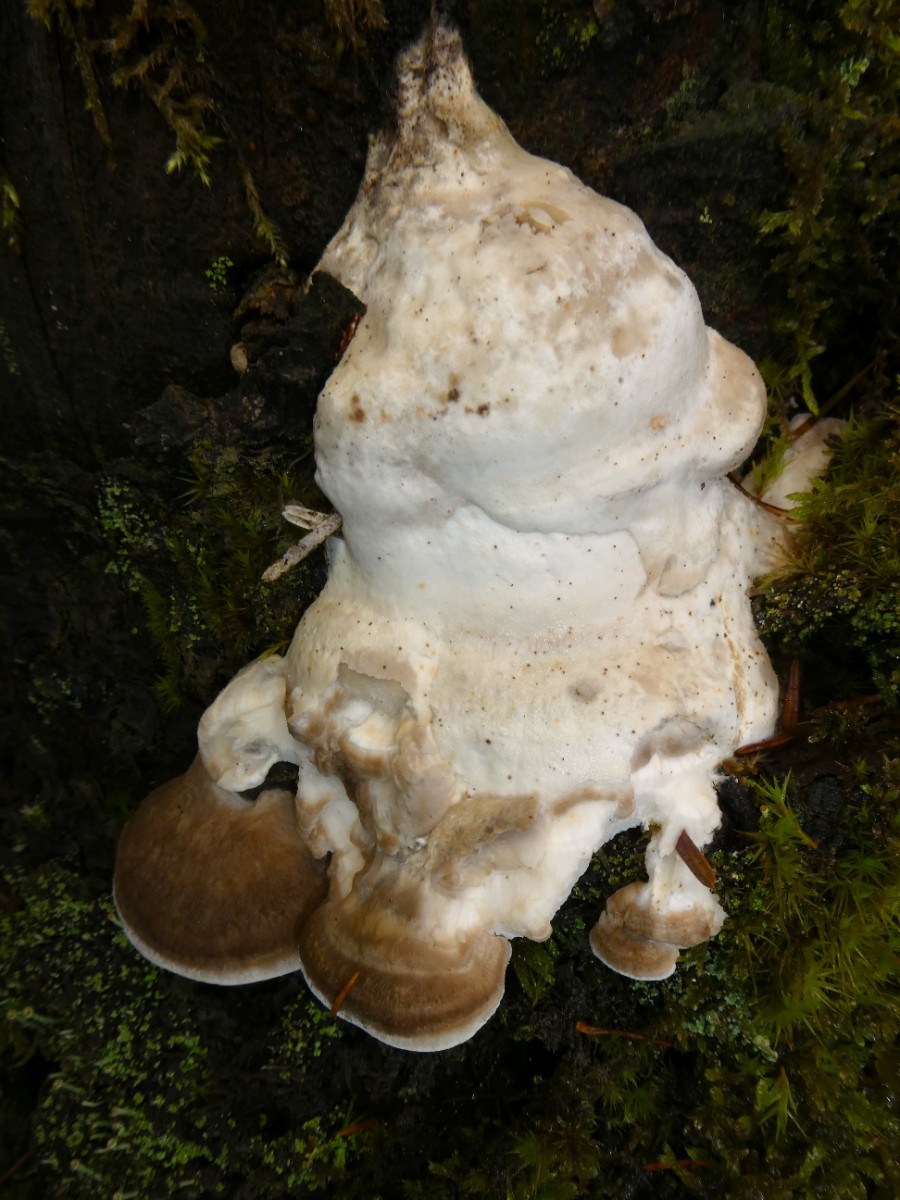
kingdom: Fungi
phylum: Basidiomycota
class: Agaricomycetes
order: Polyporales
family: Dacryobolaceae
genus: Postia
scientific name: Postia tephroleuca
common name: grålig kødporesvamp
